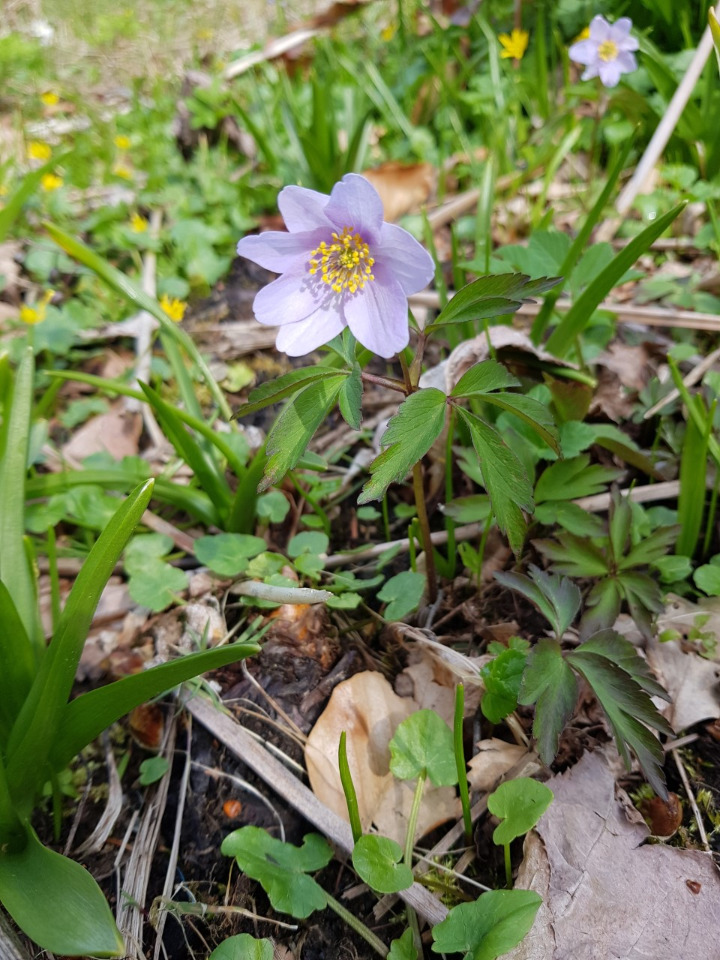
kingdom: Plantae
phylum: Tracheophyta
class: Magnoliopsida
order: Ranunculales
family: Ranunculaceae
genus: Anemone
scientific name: Anemone nemorosa
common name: Hvid anemone
